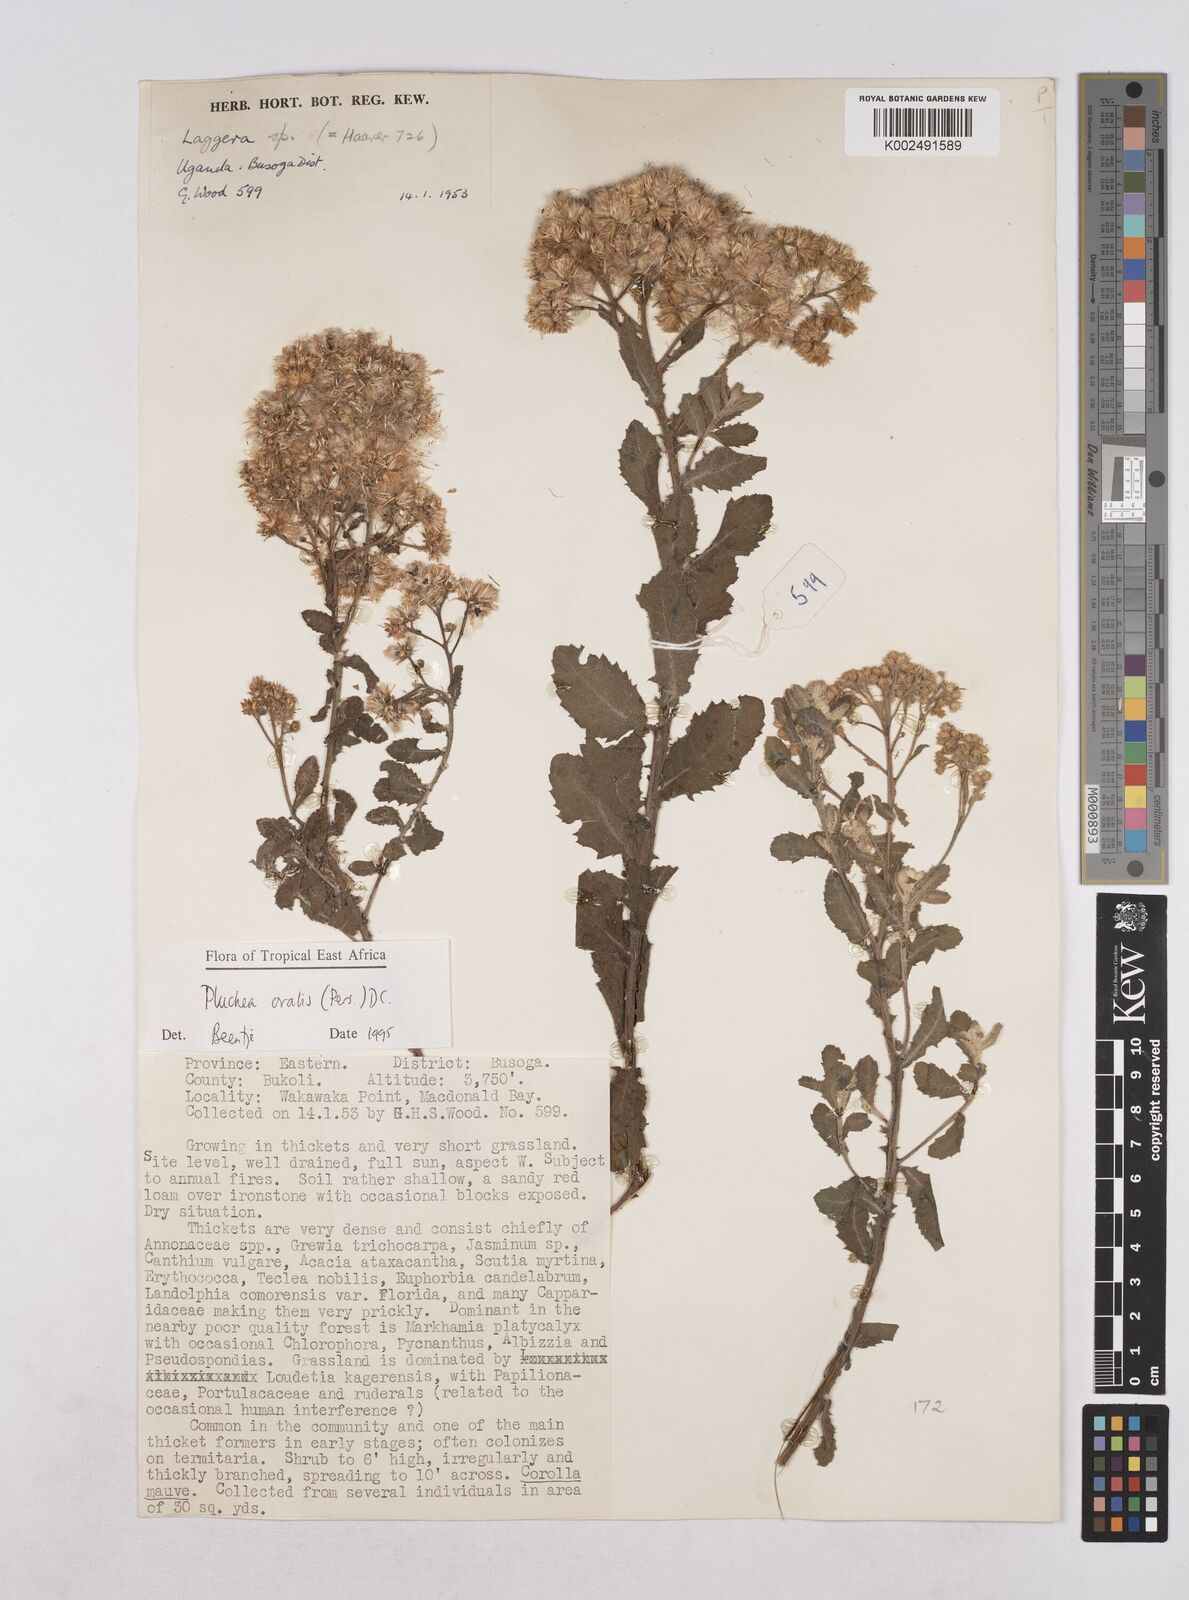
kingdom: Plantae
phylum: Tracheophyta
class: Magnoliopsida
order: Asterales
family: Asteraceae
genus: Pluchea
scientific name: Pluchea ovalis
